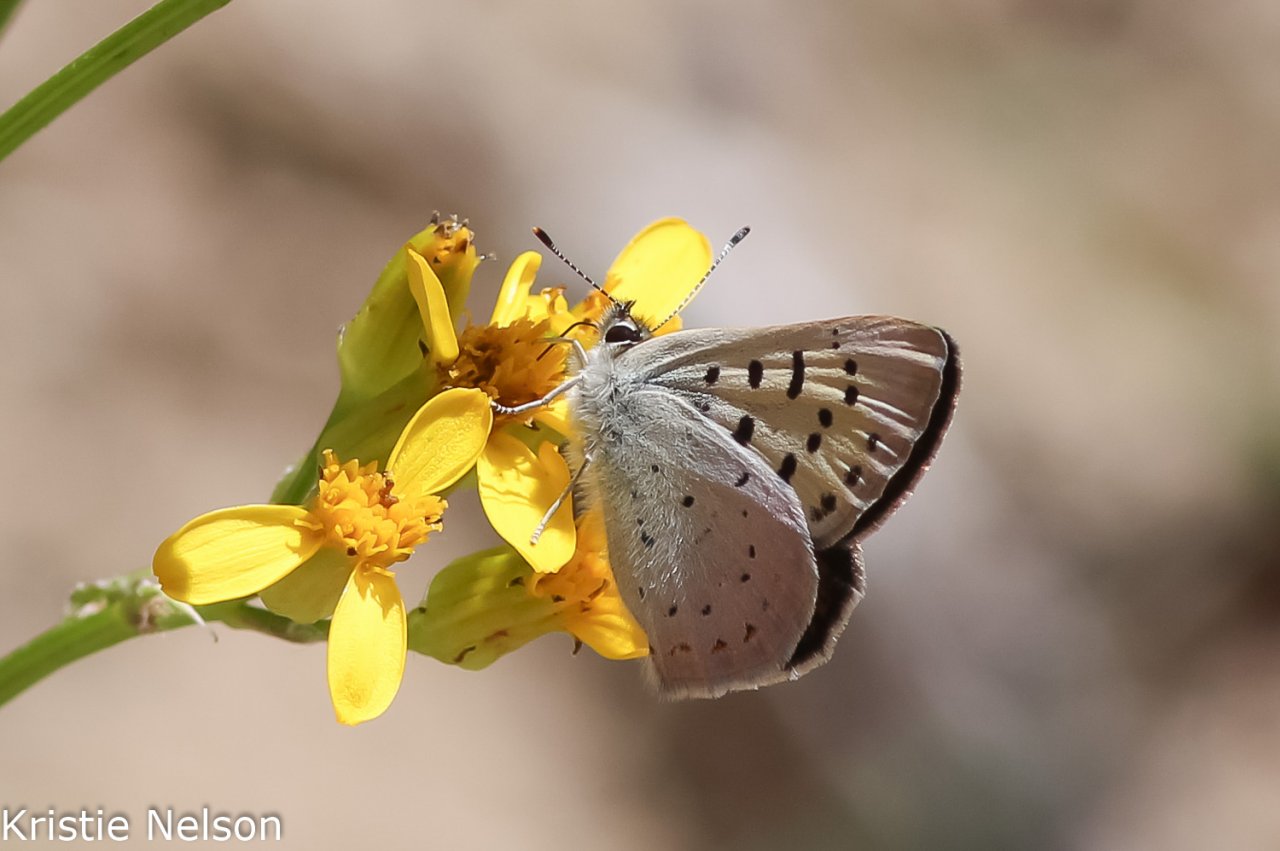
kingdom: Animalia
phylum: Arthropoda
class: Insecta
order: Lepidoptera
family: Lycaenidae
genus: Lycaena
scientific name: Lycaena nivalis
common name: Lilac-bordered Copper
